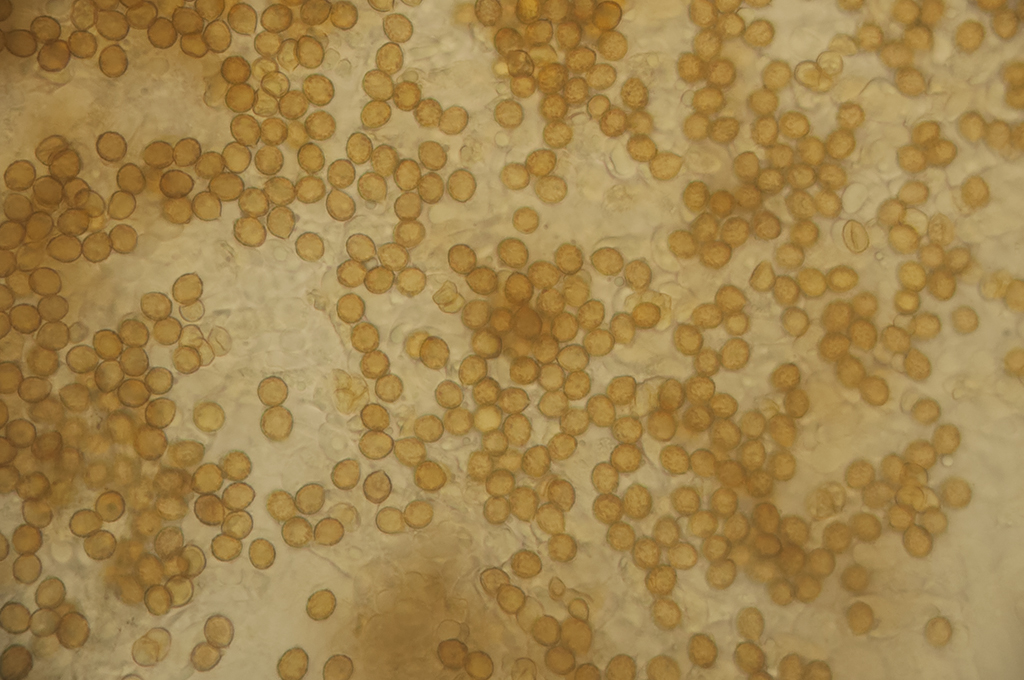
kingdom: Fungi
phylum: Basidiomycota
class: Agaricomycetes
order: Agaricales
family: Cortinariaceae
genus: Cortinarius
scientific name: Cortinarius cotoneus
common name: ulden slørhat
